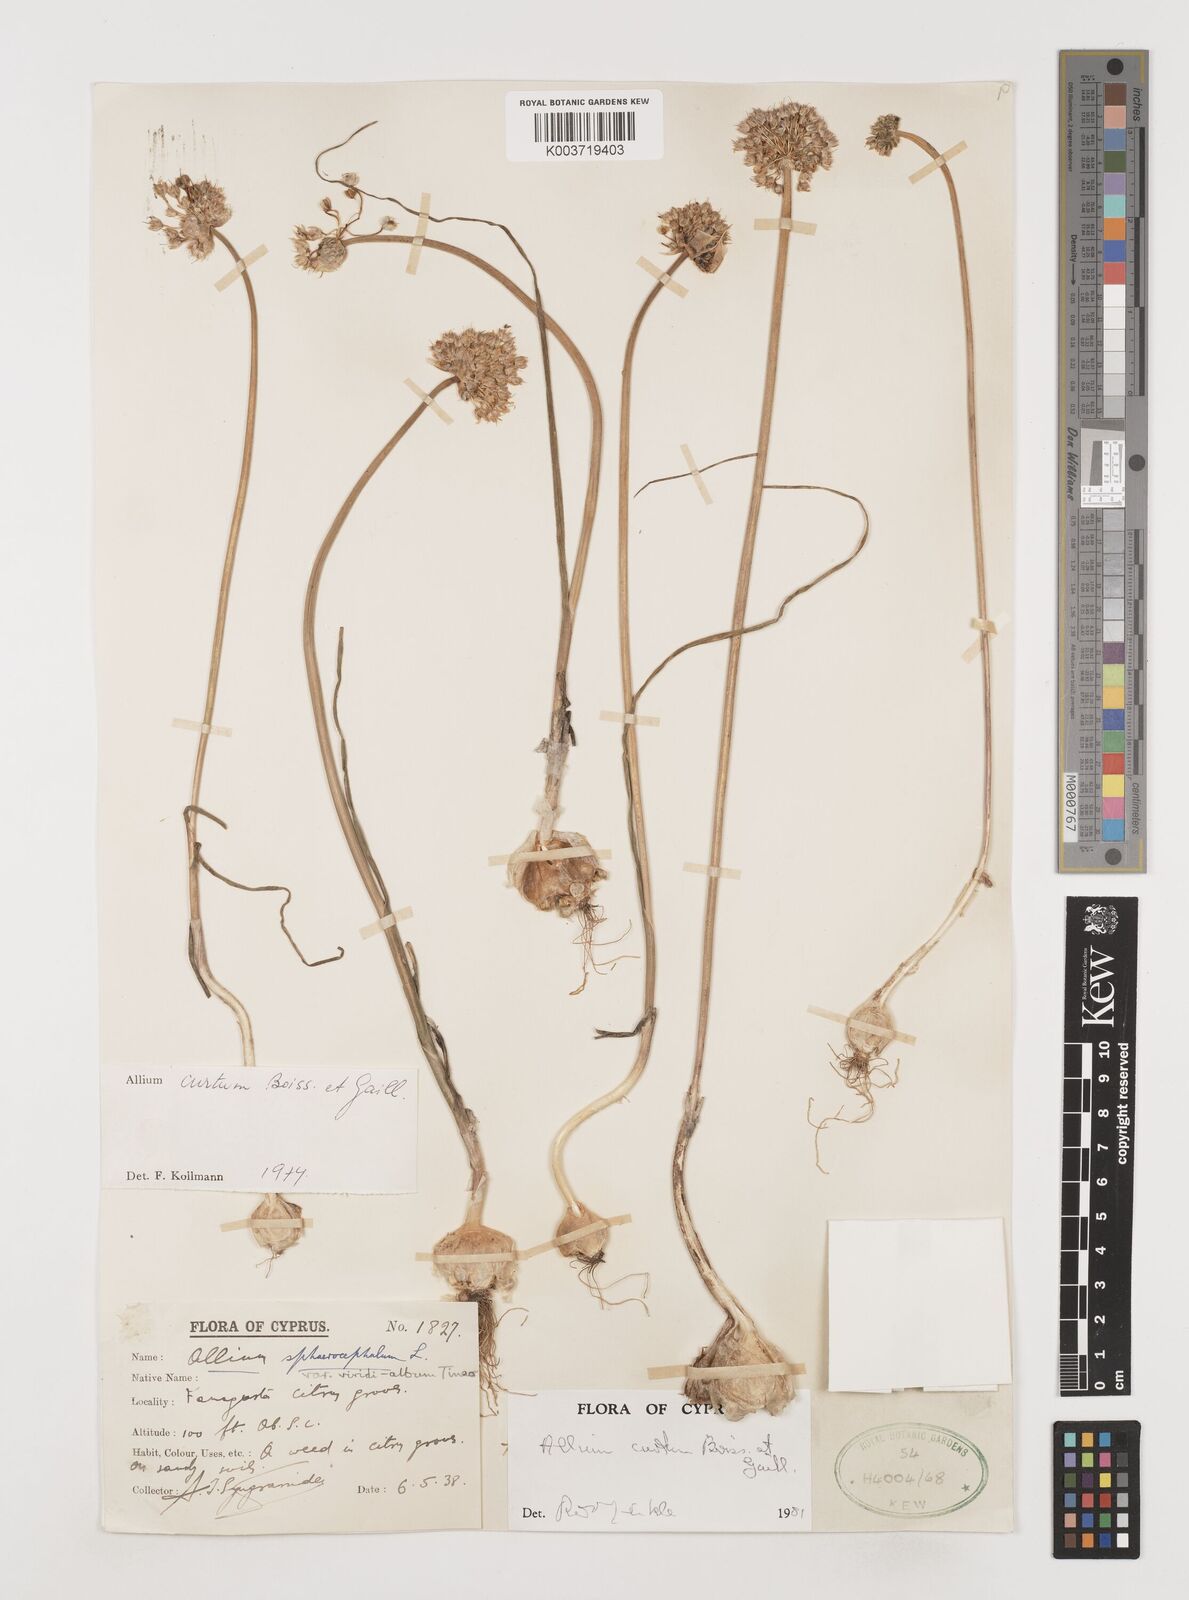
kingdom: Plantae
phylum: Tracheophyta
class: Liliopsida
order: Asparagales
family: Amaryllidaceae
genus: Allium
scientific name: Allium curtum
